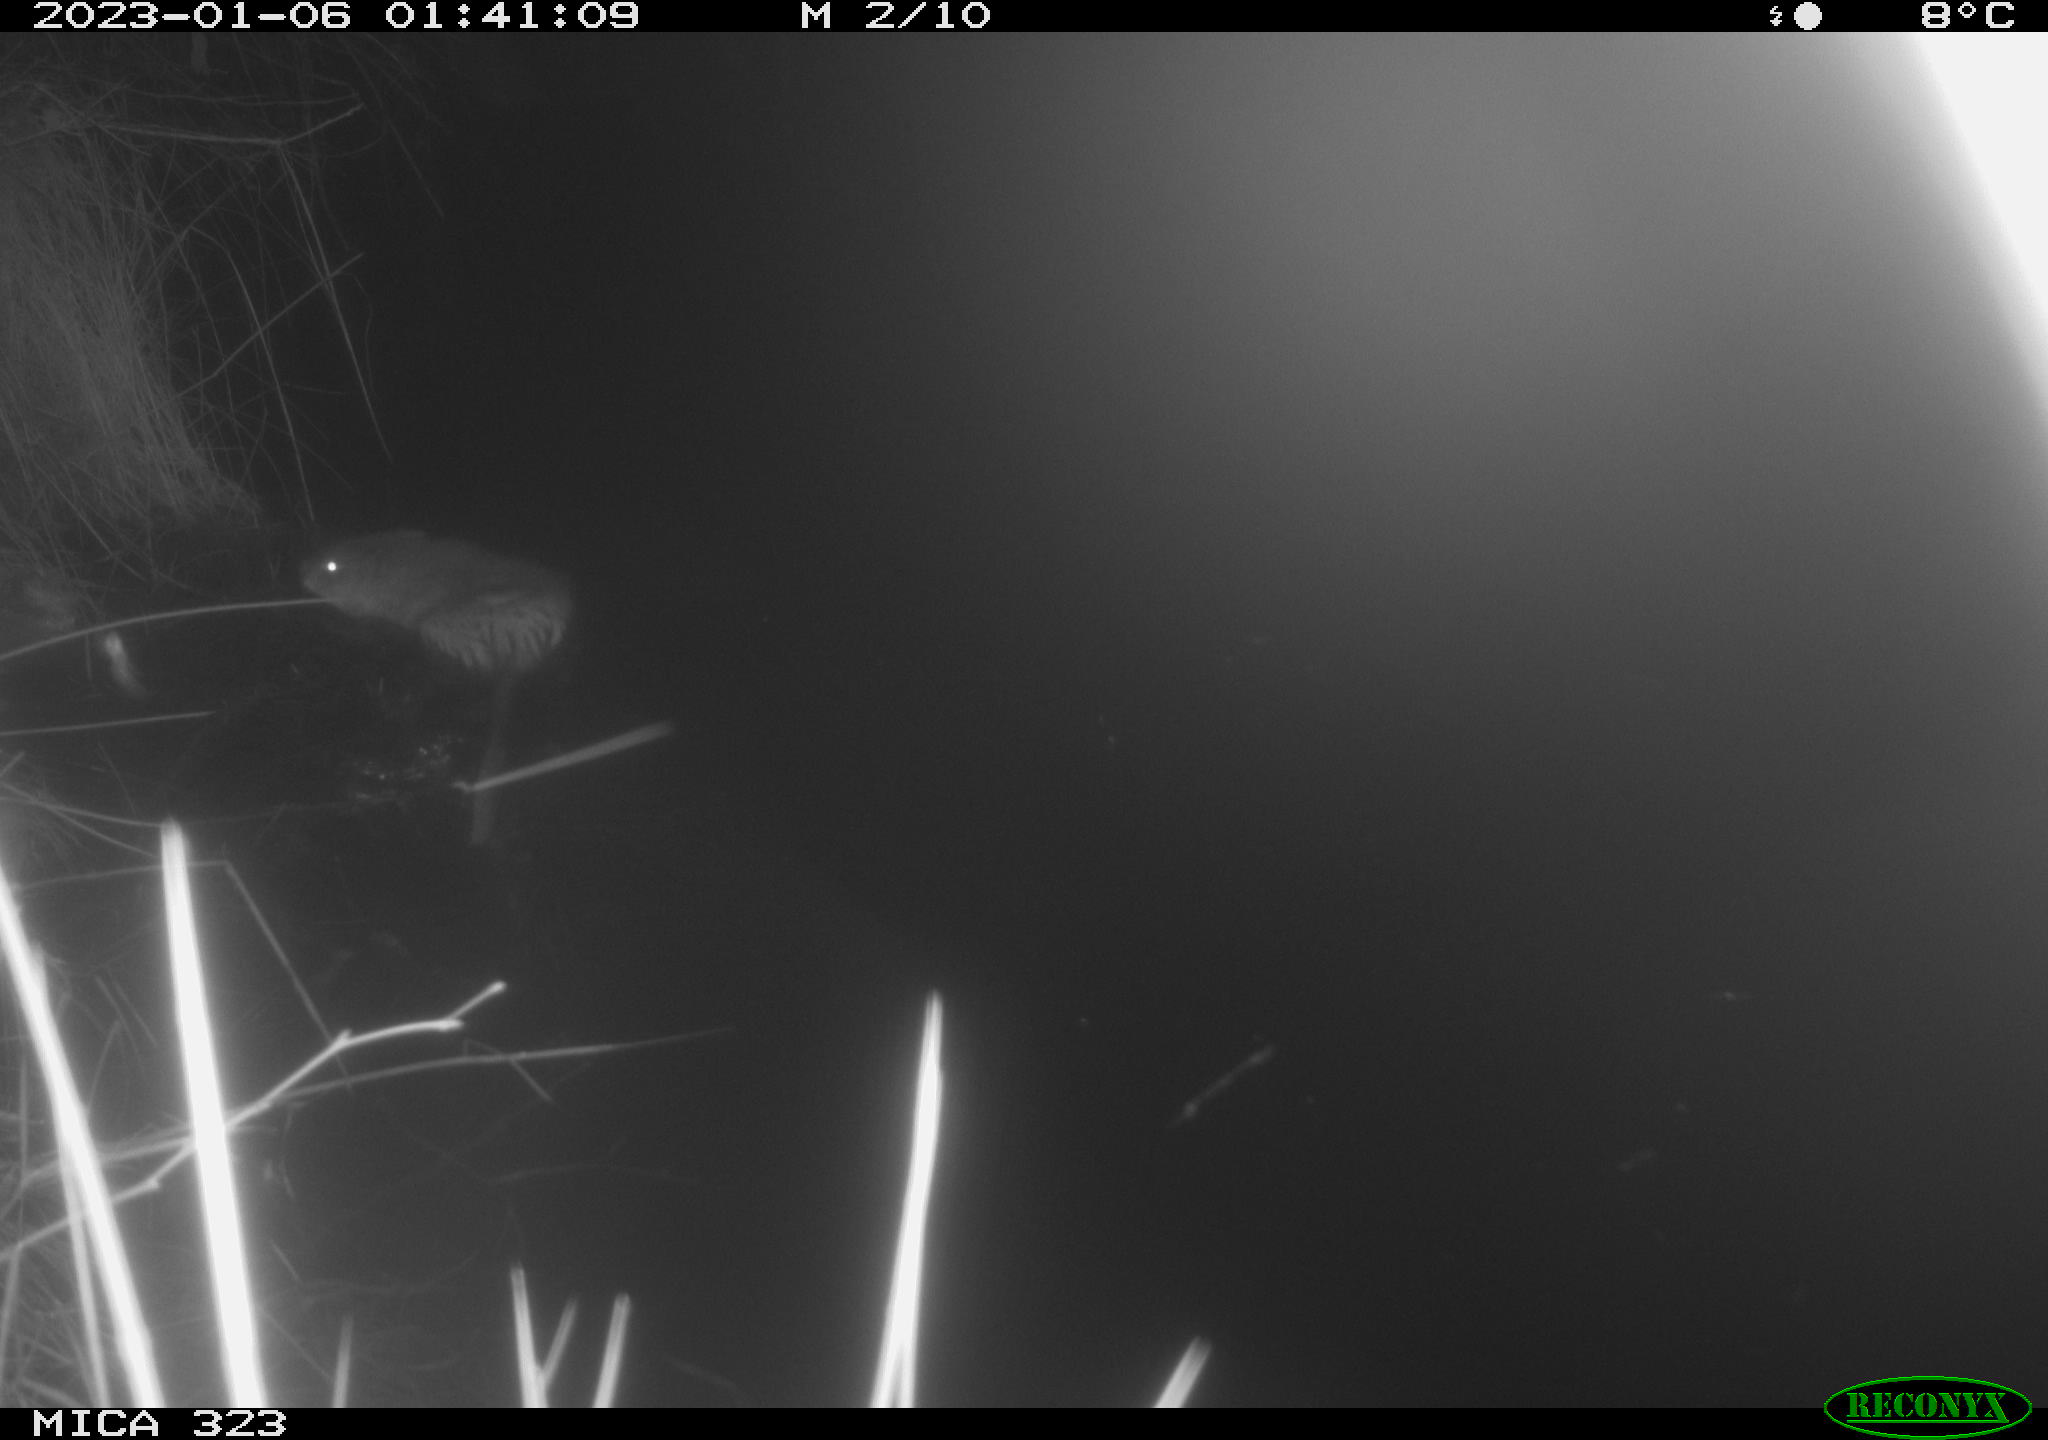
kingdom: Animalia
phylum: Chordata
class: Mammalia
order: Rodentia
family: Cricetidae
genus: Ondatra
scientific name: Ondatra zibethicus
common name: Muskrat
